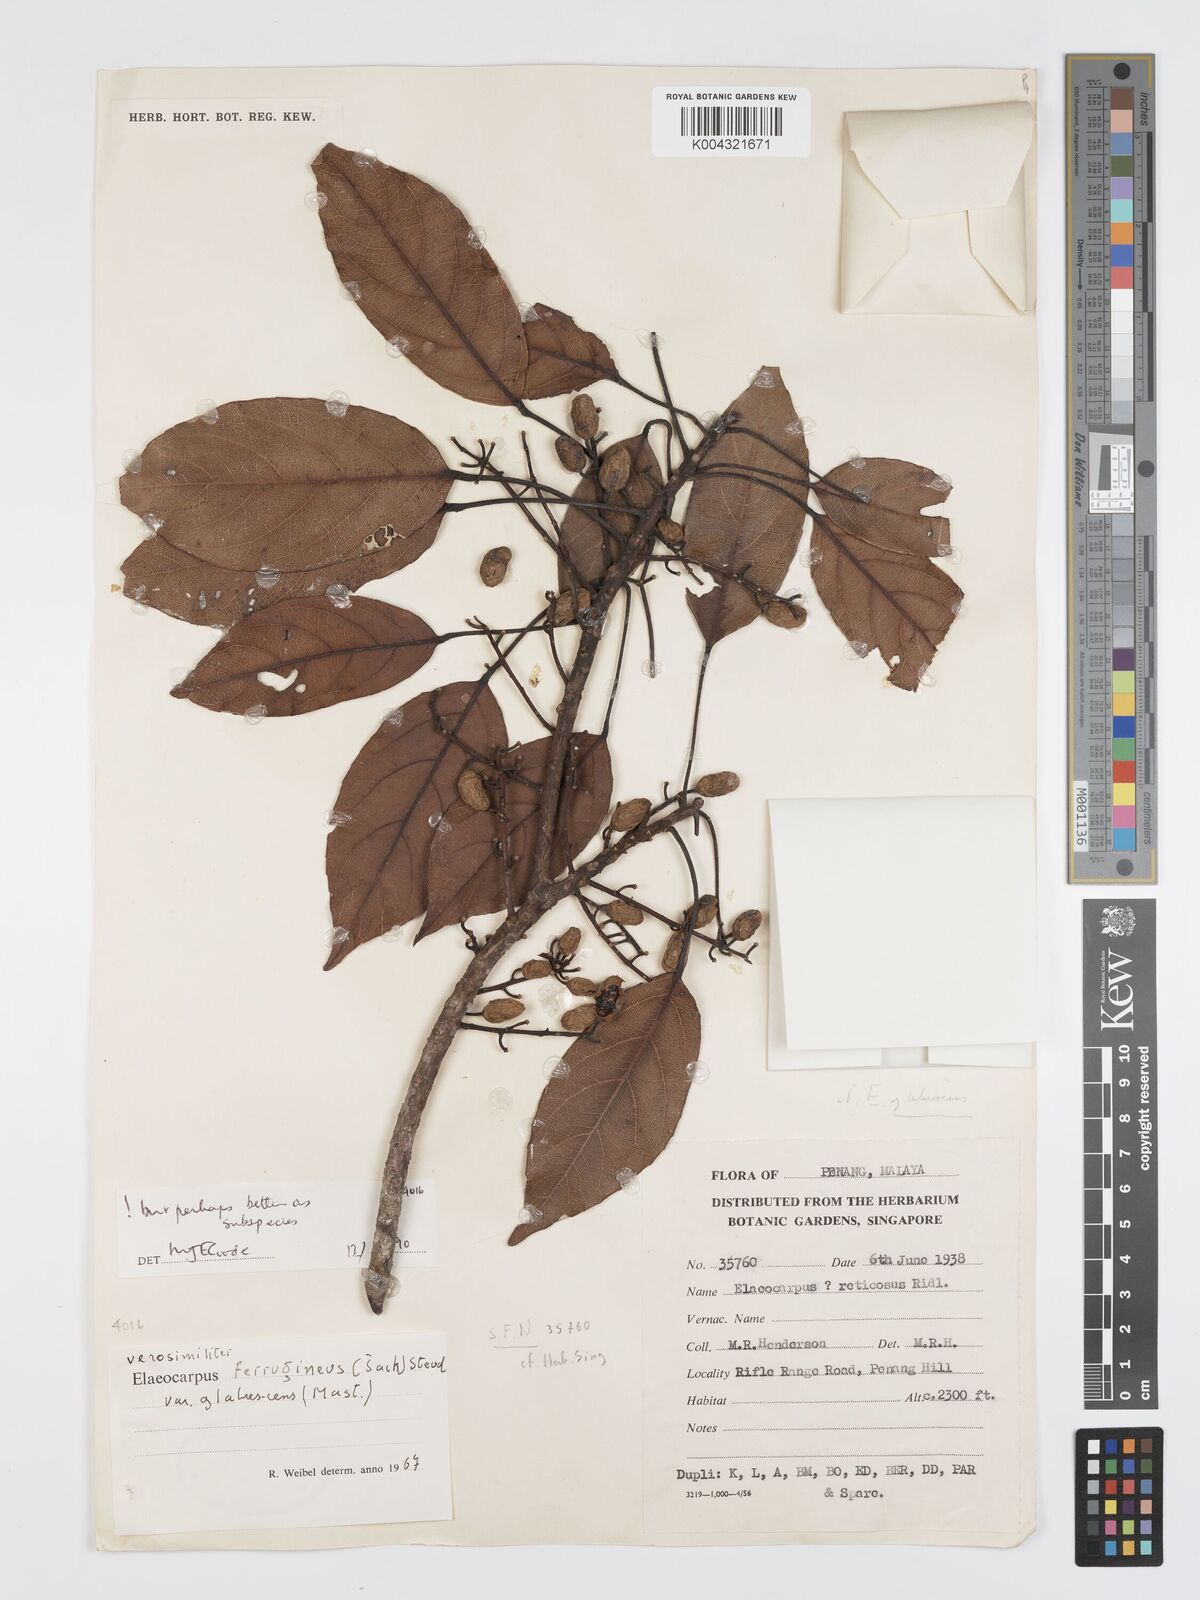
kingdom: Plantae
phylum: Tracheophyta
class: Magnoliopsida
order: Oxalidales
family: Elaeocarpaceae
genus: Elaeocarpus
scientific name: Elaeocarpus ferrugineus
